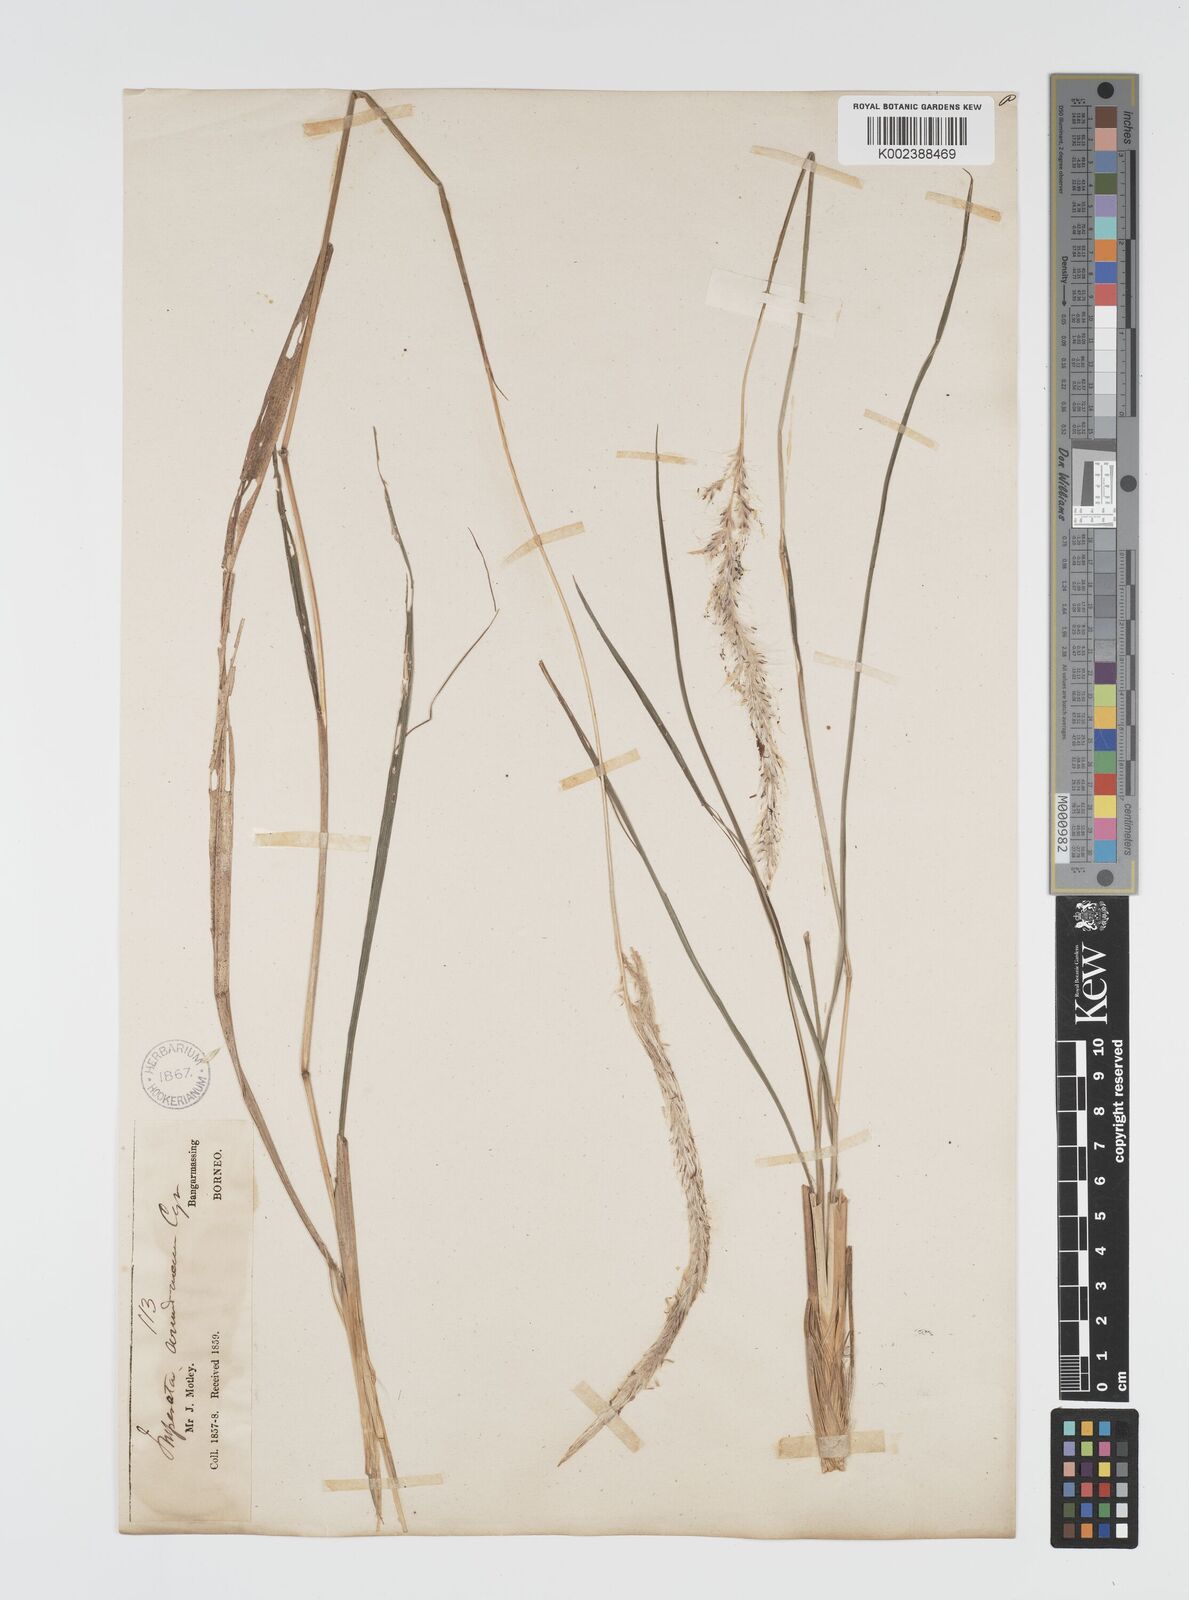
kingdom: Plantae
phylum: Tracheophyta
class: Liliopsida
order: Poales
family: Poaceae
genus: Imperata
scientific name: Imperata cylindrica
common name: Cogongrass
